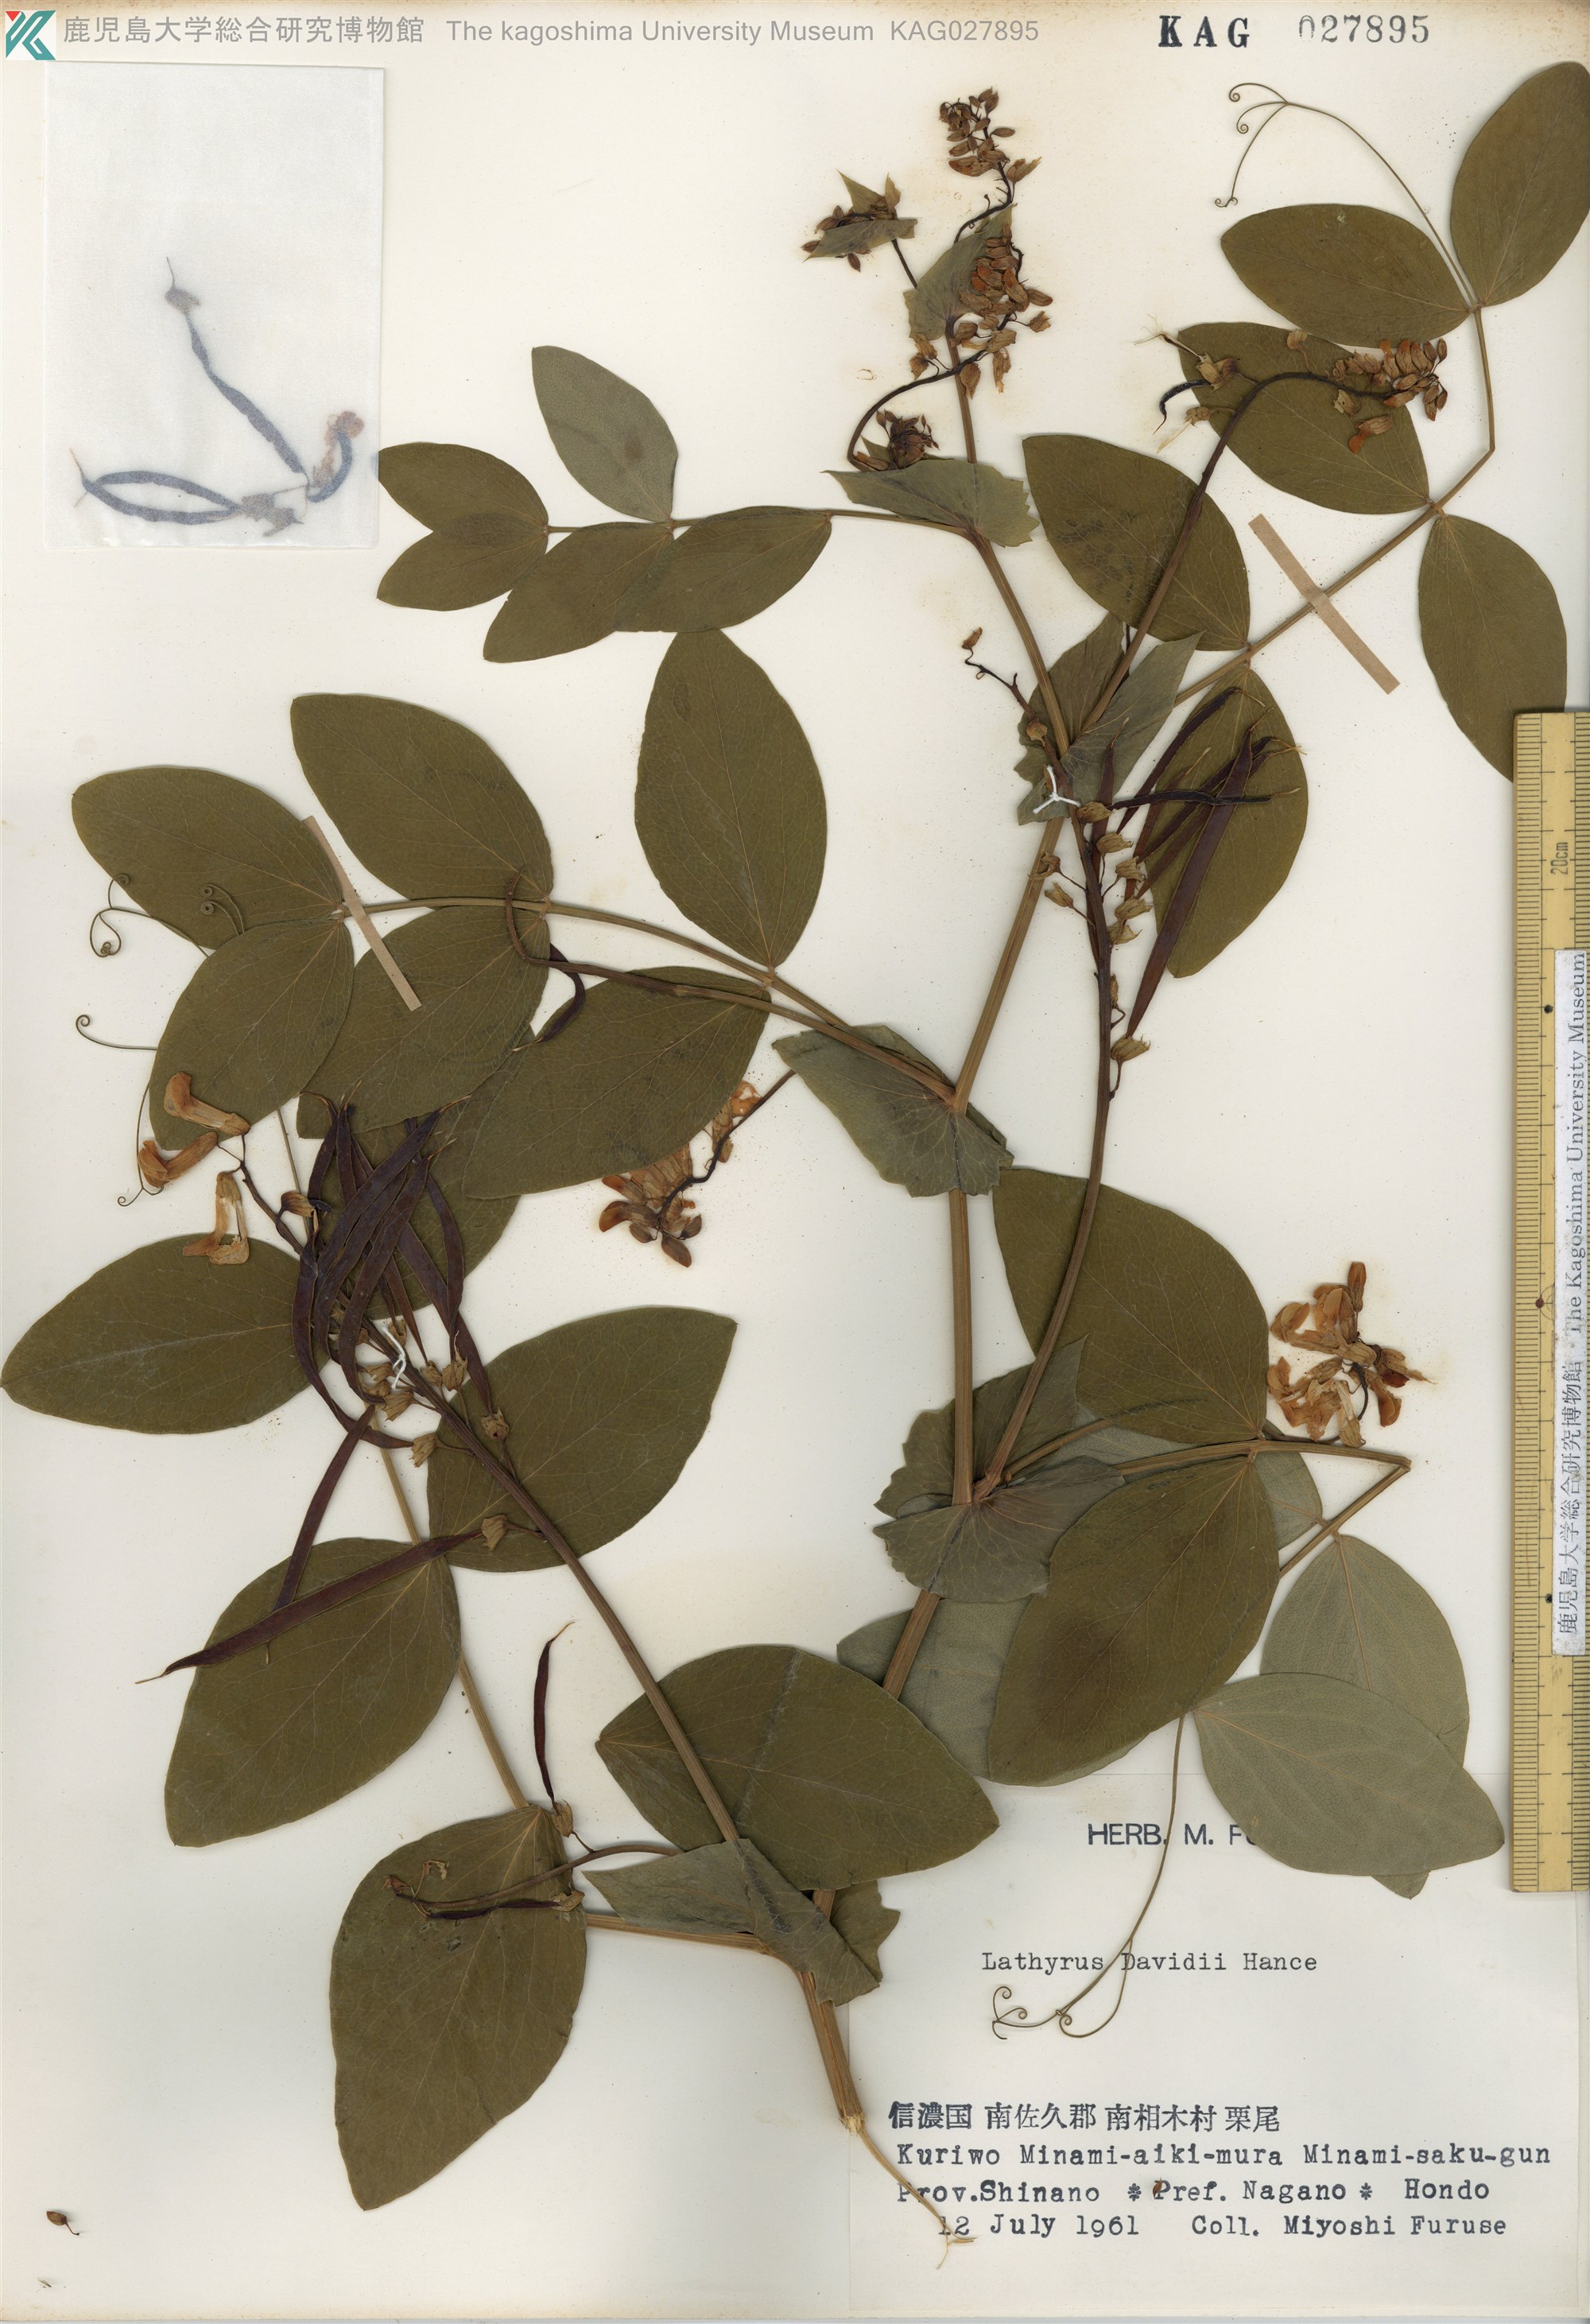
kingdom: Plantae
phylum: Tracheophyta
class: Magnoliopsida
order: Fabales
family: Fabaceae
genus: Lathyrus
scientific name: Lathyrus davidii
